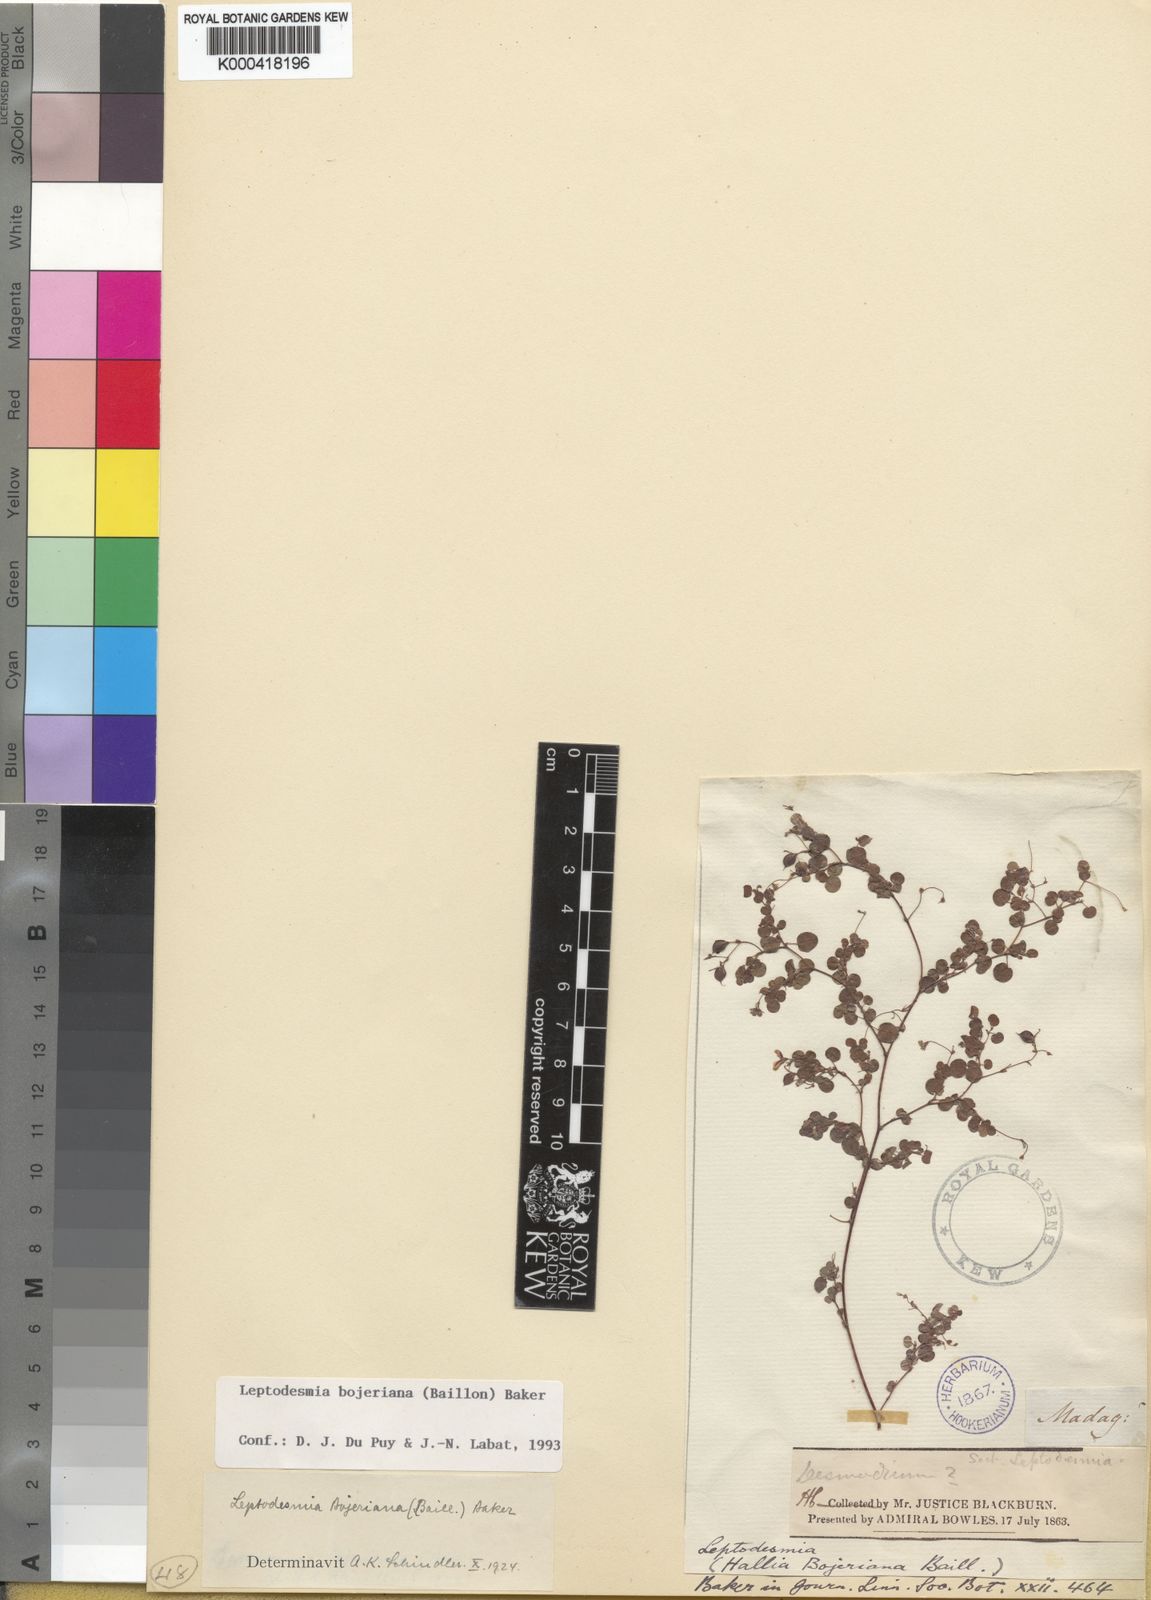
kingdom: Plantae
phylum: Tracheophyta
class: Magnoliopsida
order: Fabales
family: Fabaceae
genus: Leptodesmia
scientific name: Leptodesmia bojeriana
